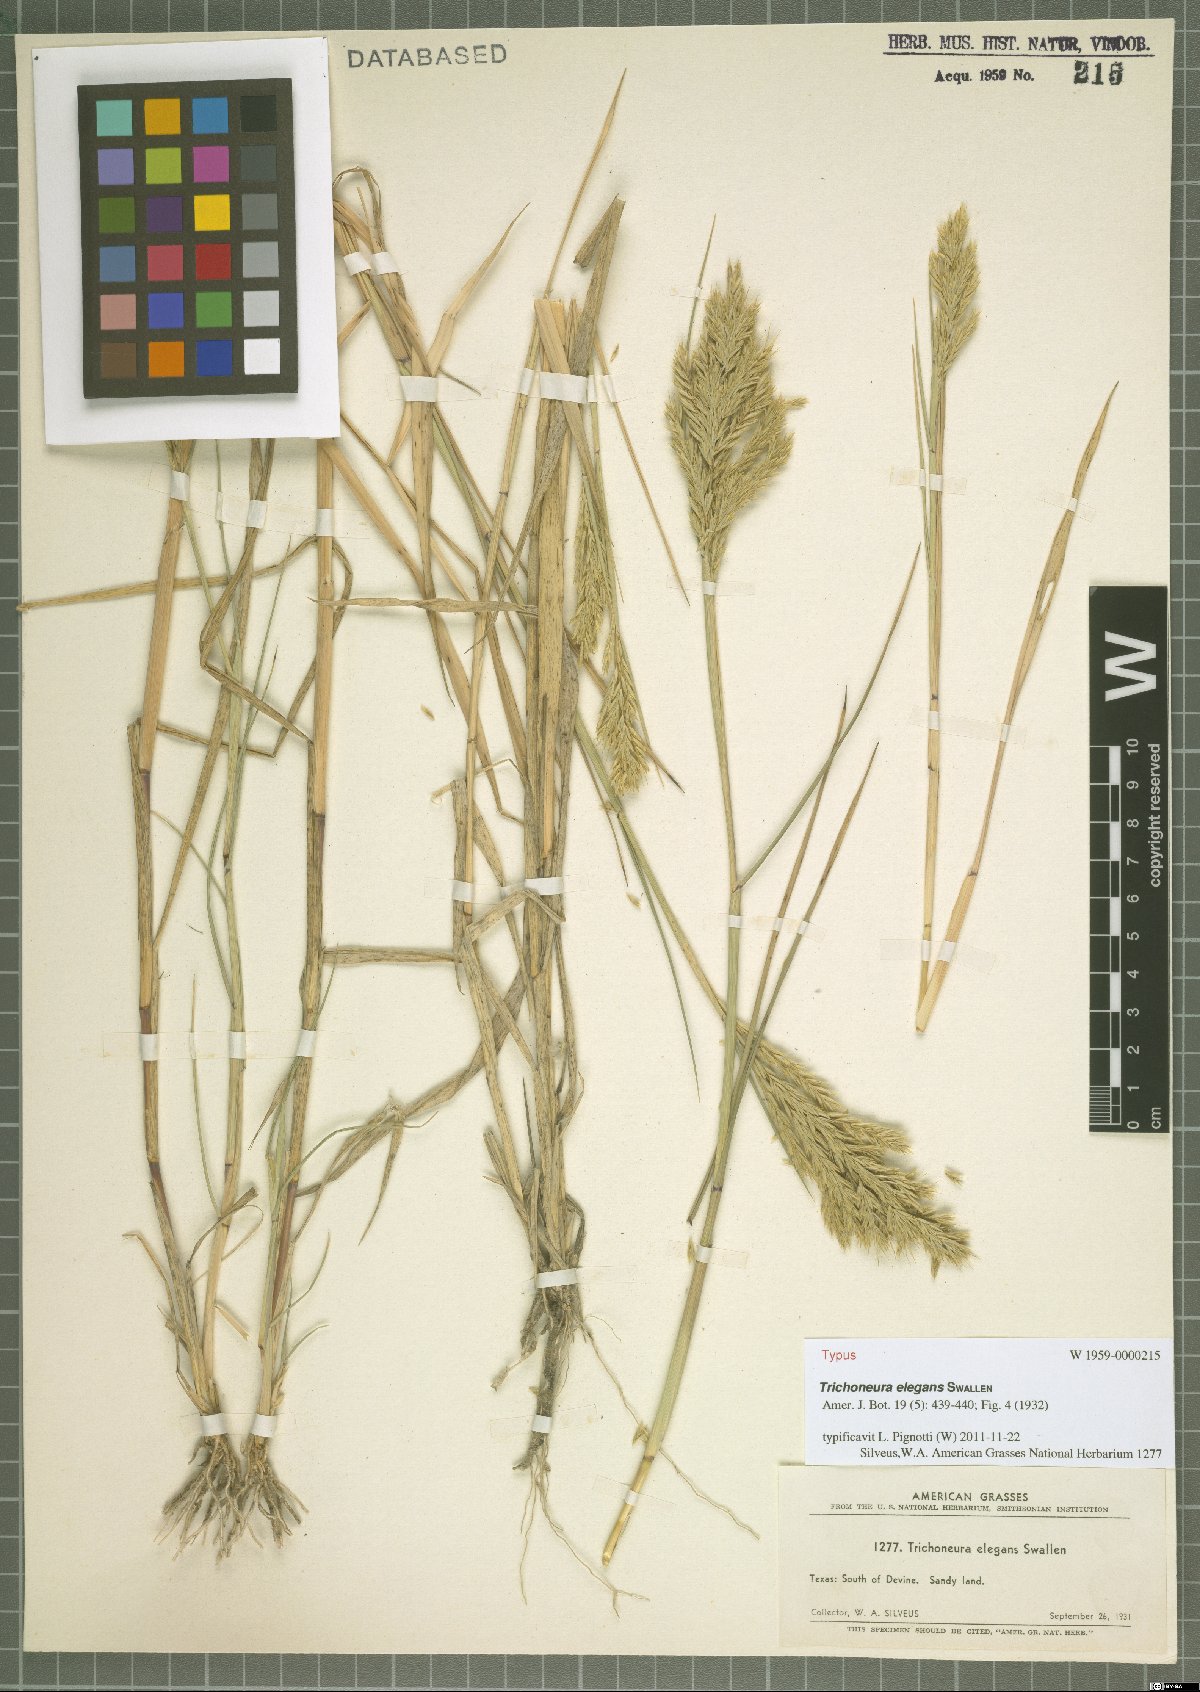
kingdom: Plantae
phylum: Tracheophyta
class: Liliopsida
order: Poales
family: Poaceae
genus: Trichoneura
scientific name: Trichoneura elegans
